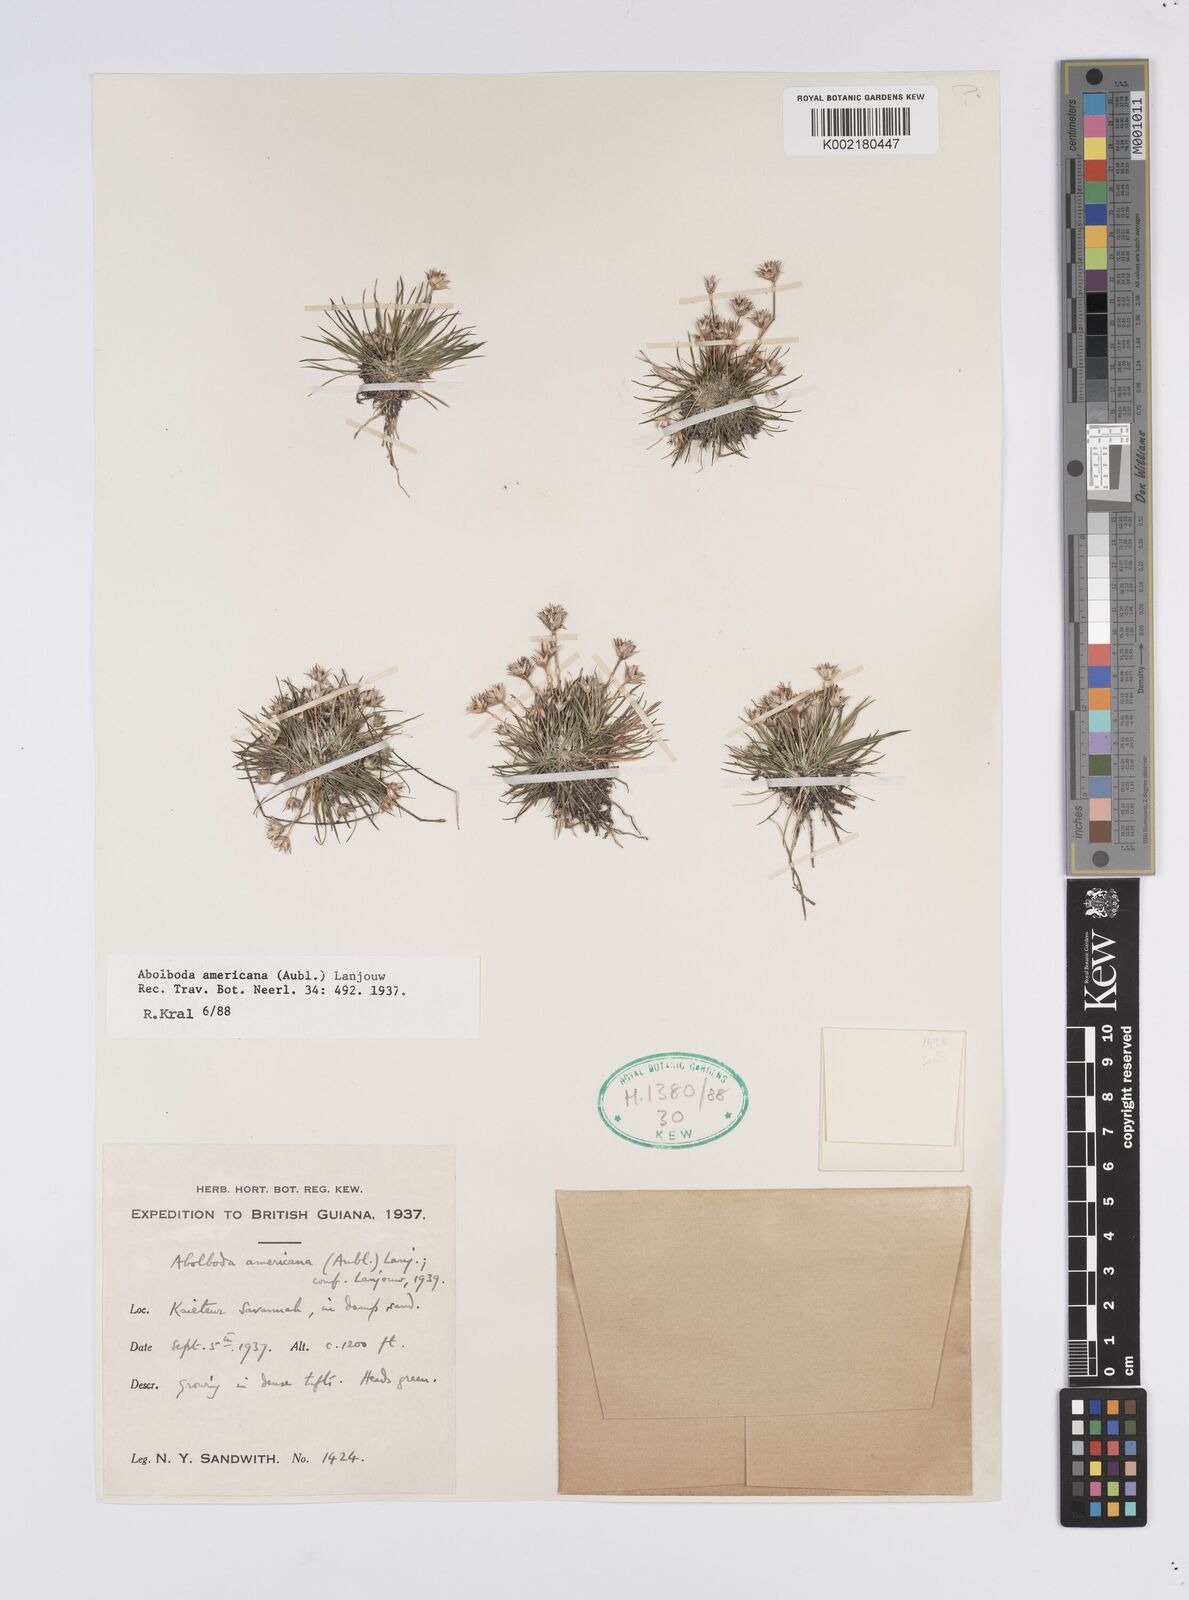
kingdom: Plantae
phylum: Tracheophyta
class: Liliopsida
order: Poales
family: Xyridaceae
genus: Abolboda
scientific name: Abolboda americana
